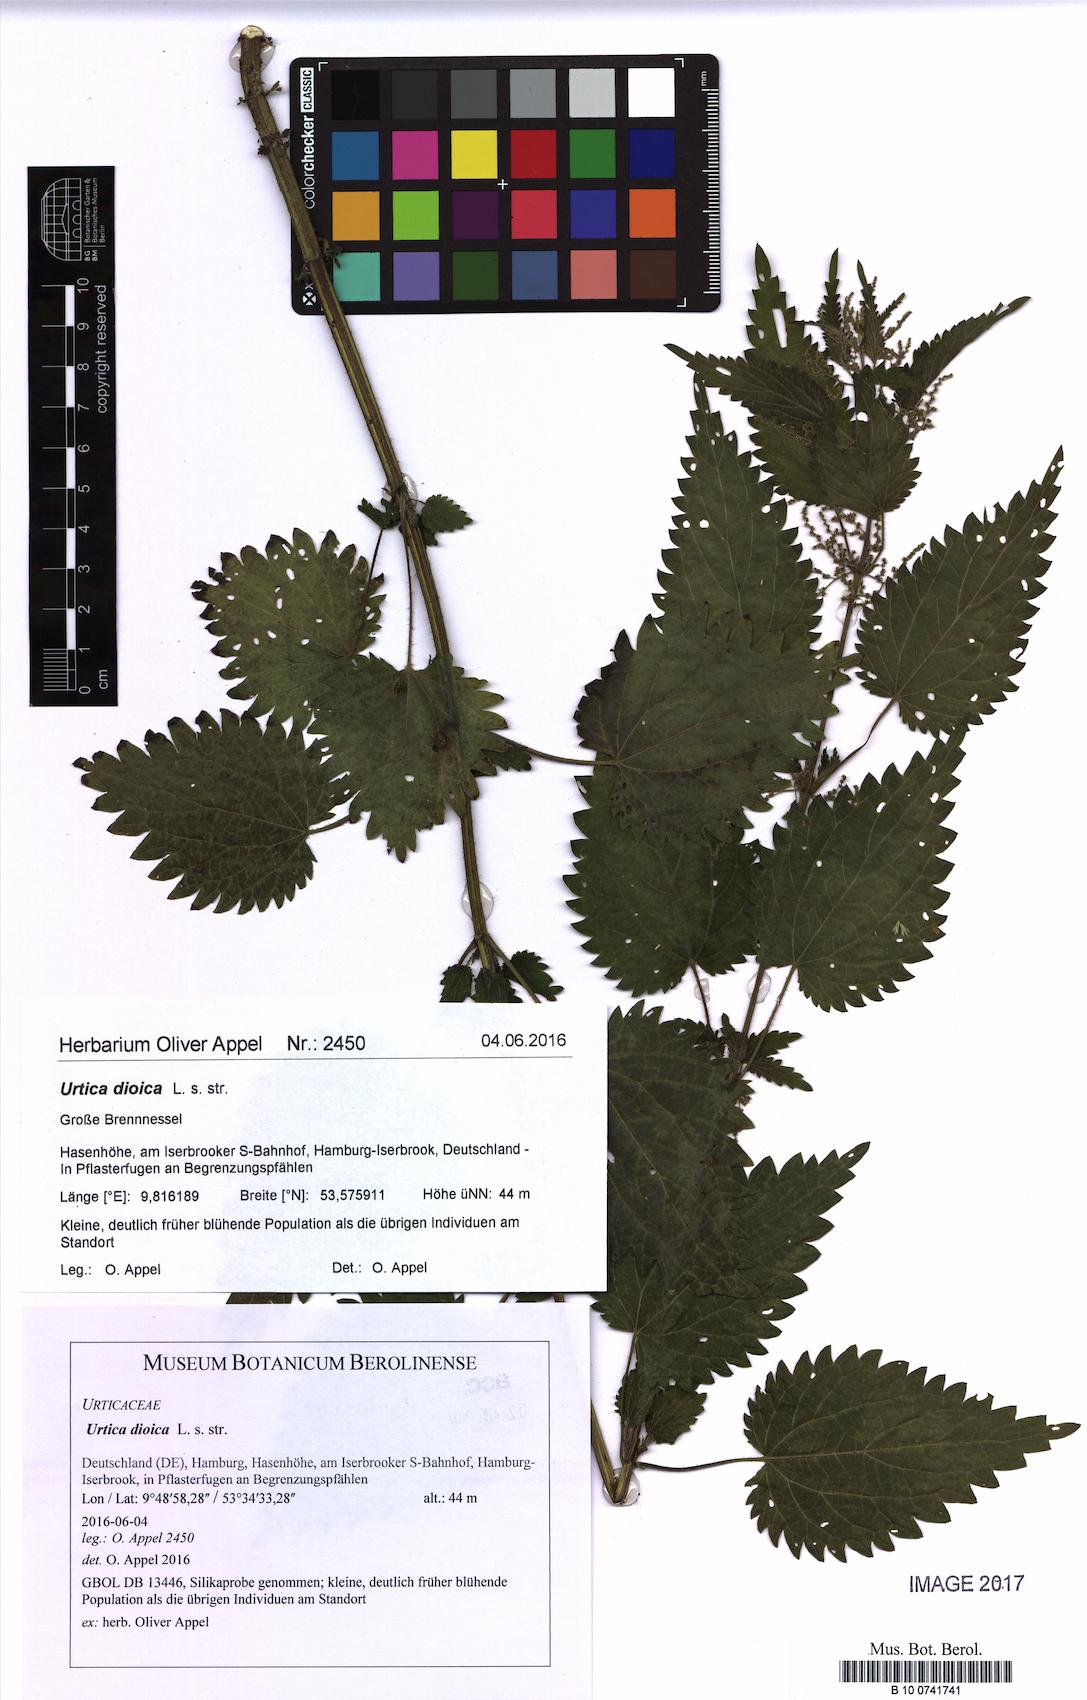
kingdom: Plantae
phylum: Tracheophyta
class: Magnoliopsida
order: Rosales
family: Urticaceae
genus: Urtica
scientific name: Urtica dioica
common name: Common nettle
